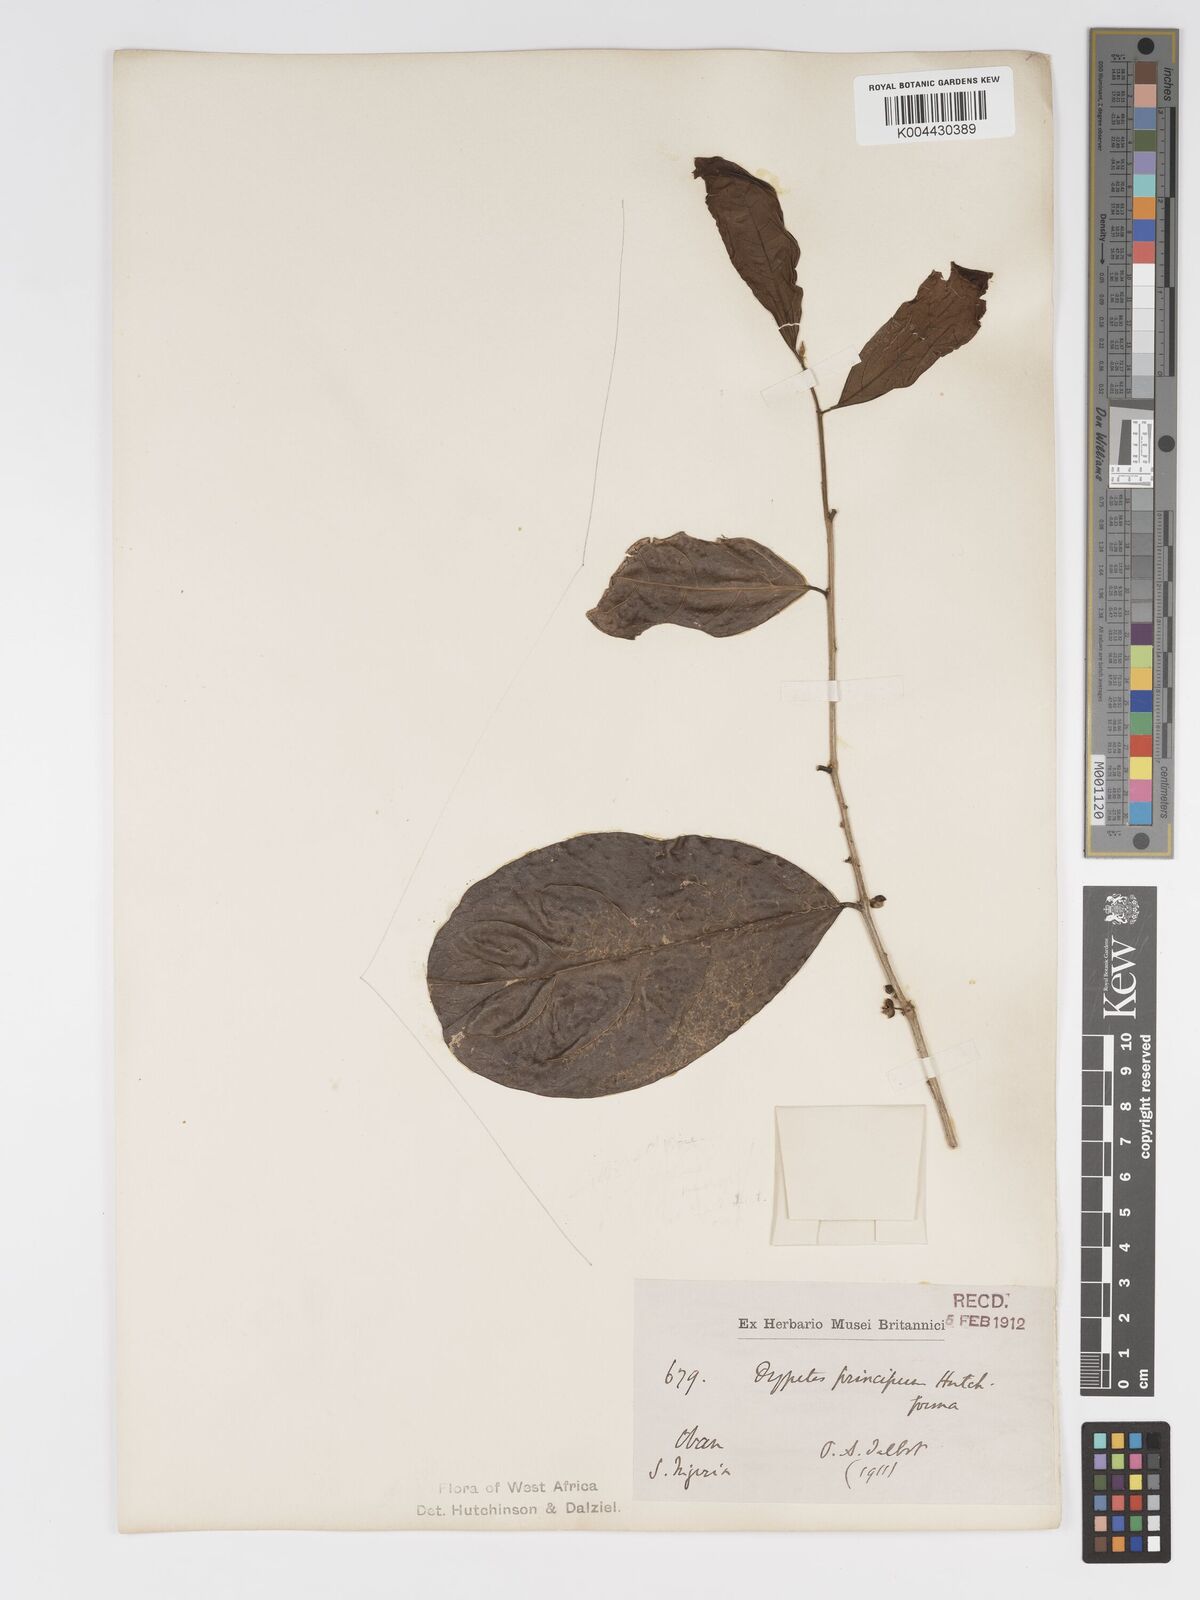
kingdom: Plantae
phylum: Tracheophyta
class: Magnoliopsida
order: Malpighiales
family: Putranjivaceae
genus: Drypetes
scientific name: Drypetes principum
